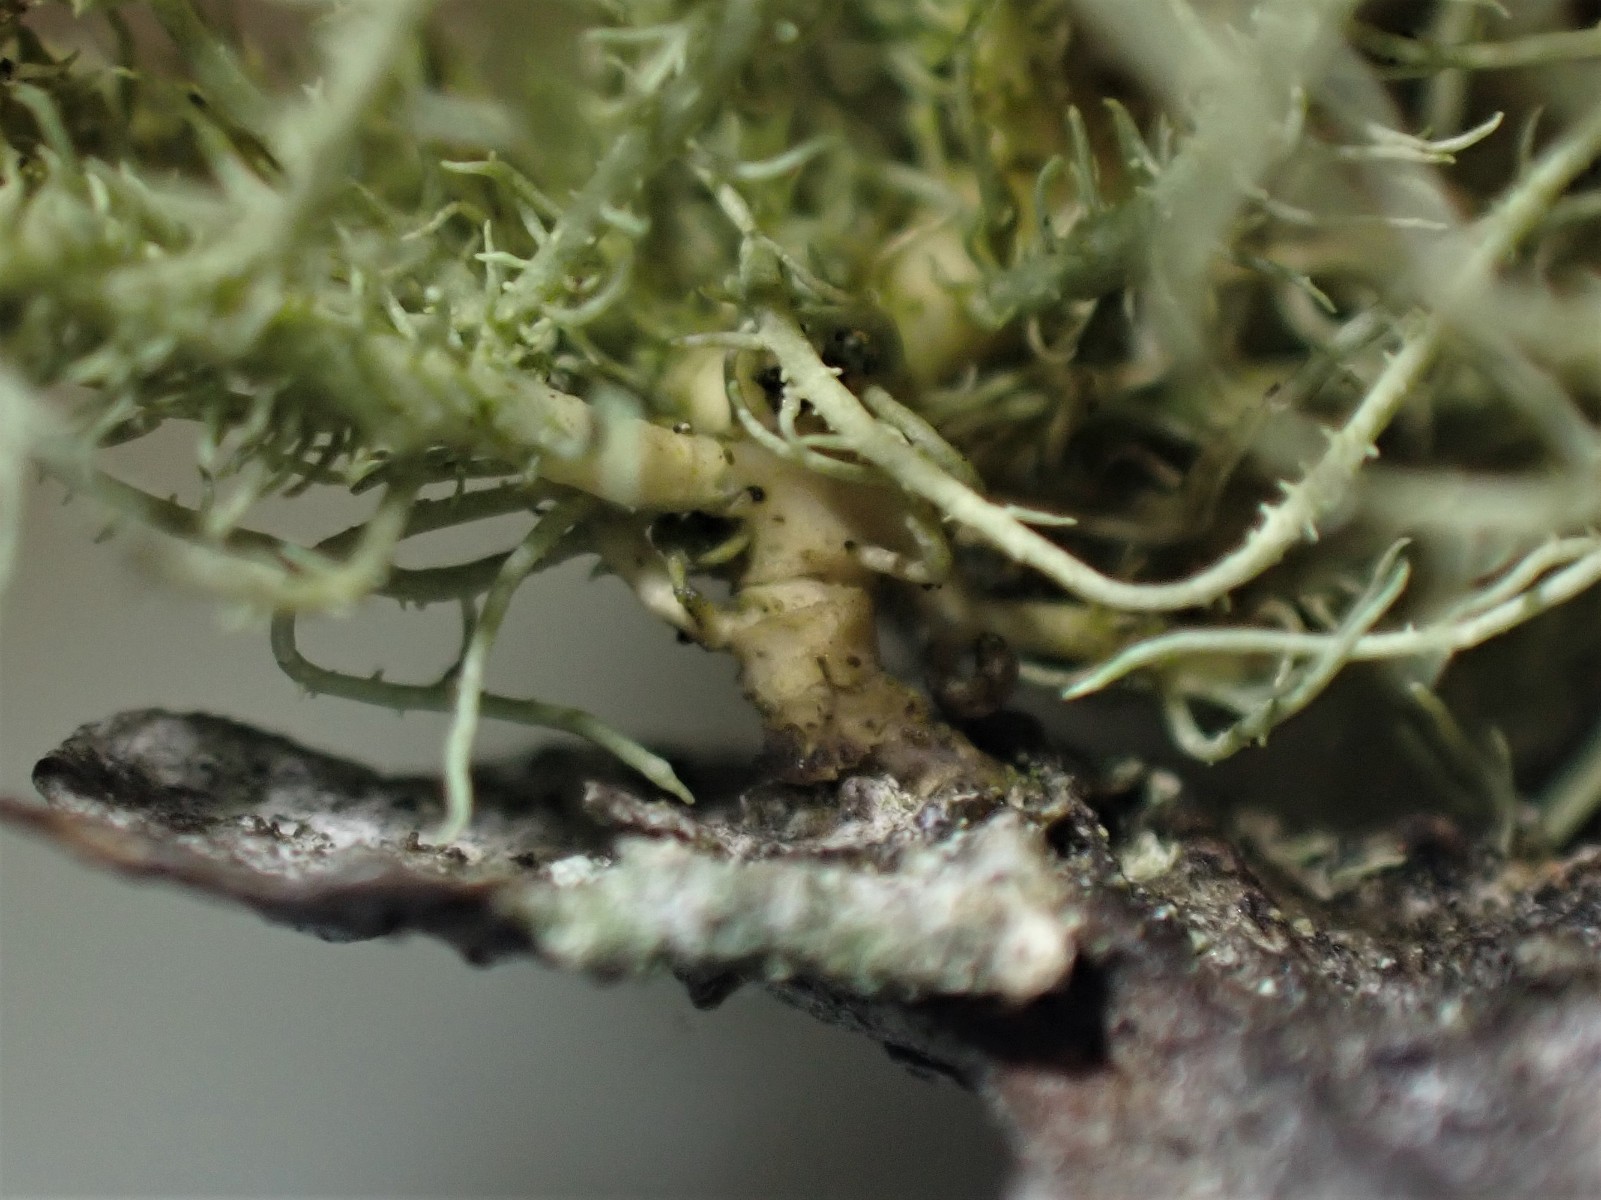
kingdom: Fungi
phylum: Ascomycota
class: Lecanoromycetes
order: Lecanorales
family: Parmeliaceae
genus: Usnea
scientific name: Usnea hirta
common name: liden skæglav
